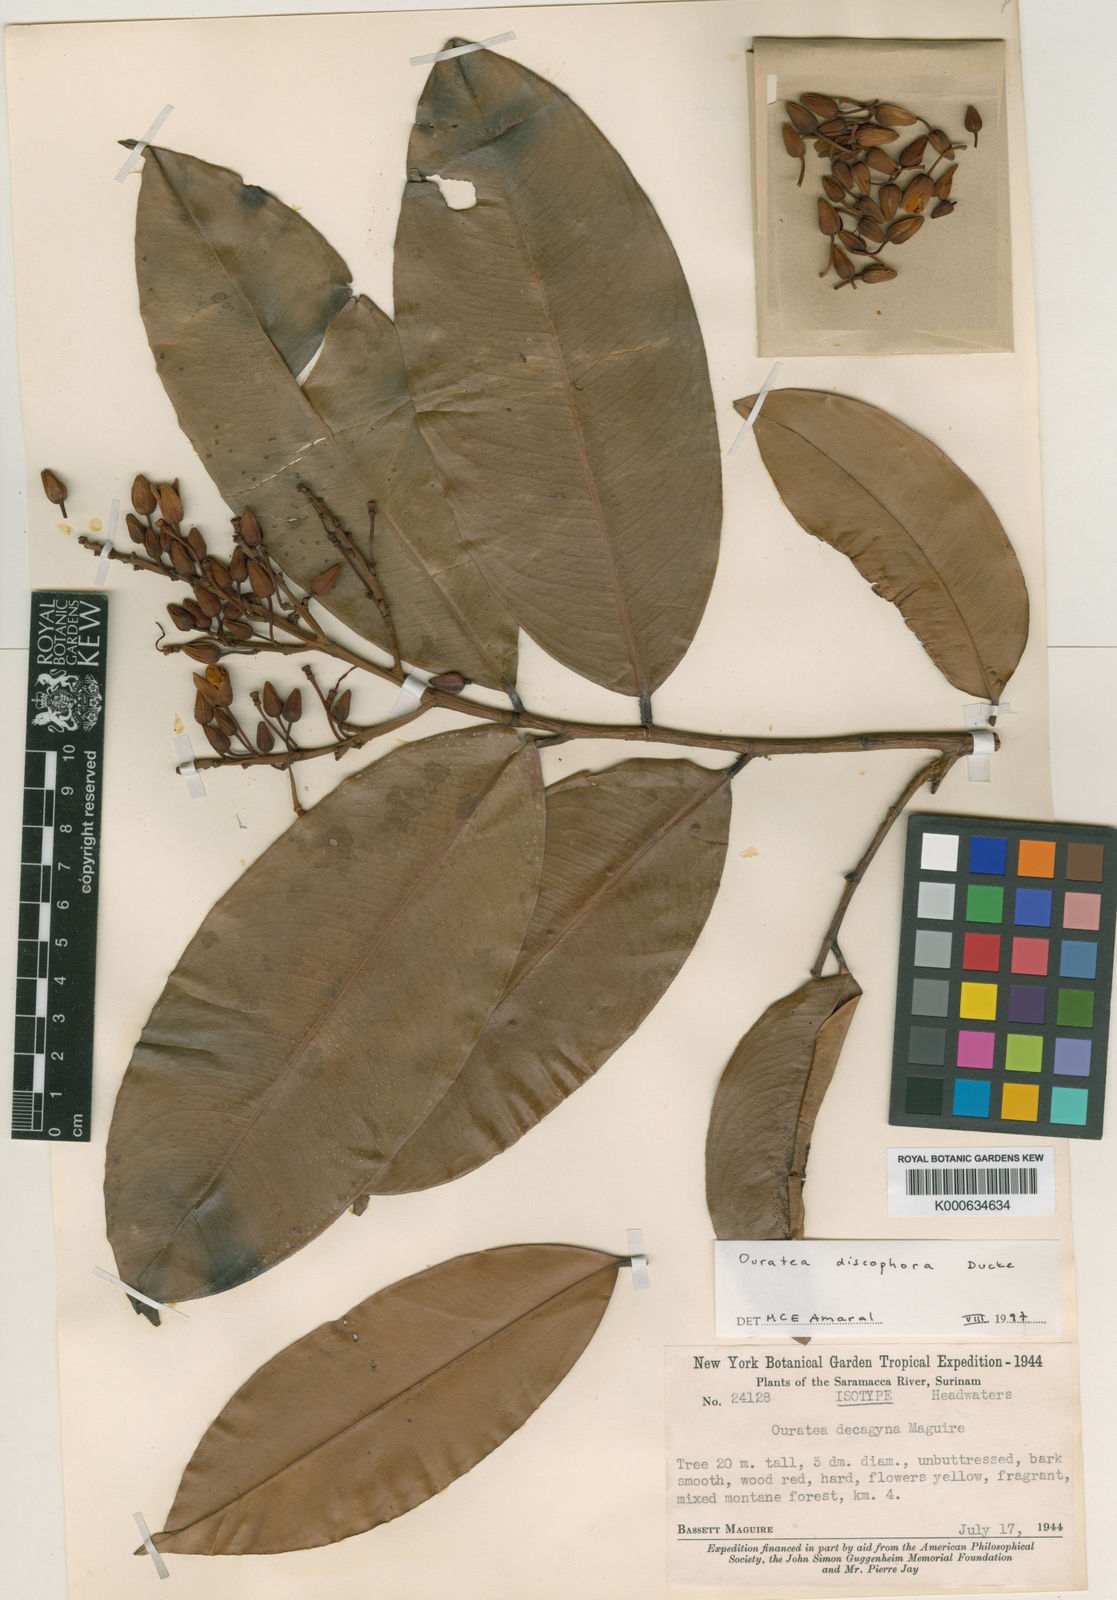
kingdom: Plantae
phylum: Tracheophyta
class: Magnoliopsida
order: Malpighiales
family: Ochnaceae
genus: Ouratea
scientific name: Ouratea discophora
